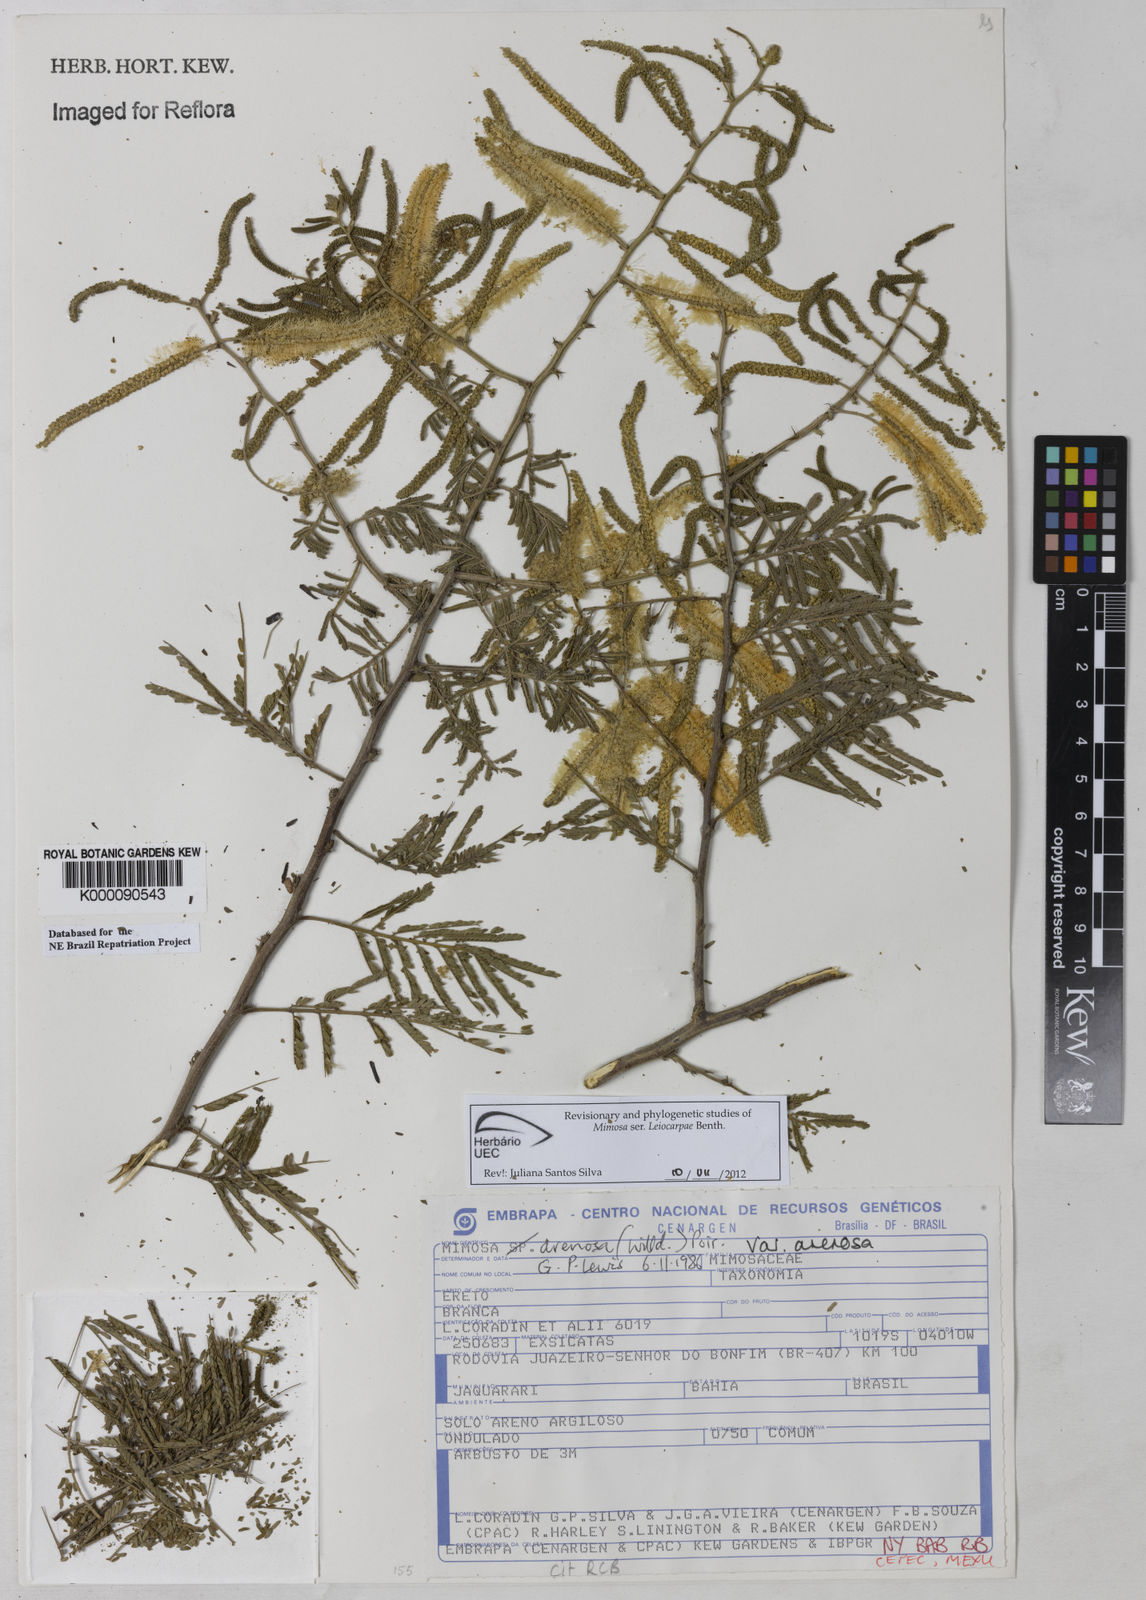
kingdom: Plantae
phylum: Tracheophyta
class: Magnoliopsida
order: Fabales
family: Fabaceae
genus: Mimosa
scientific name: Mimosa arenosa
